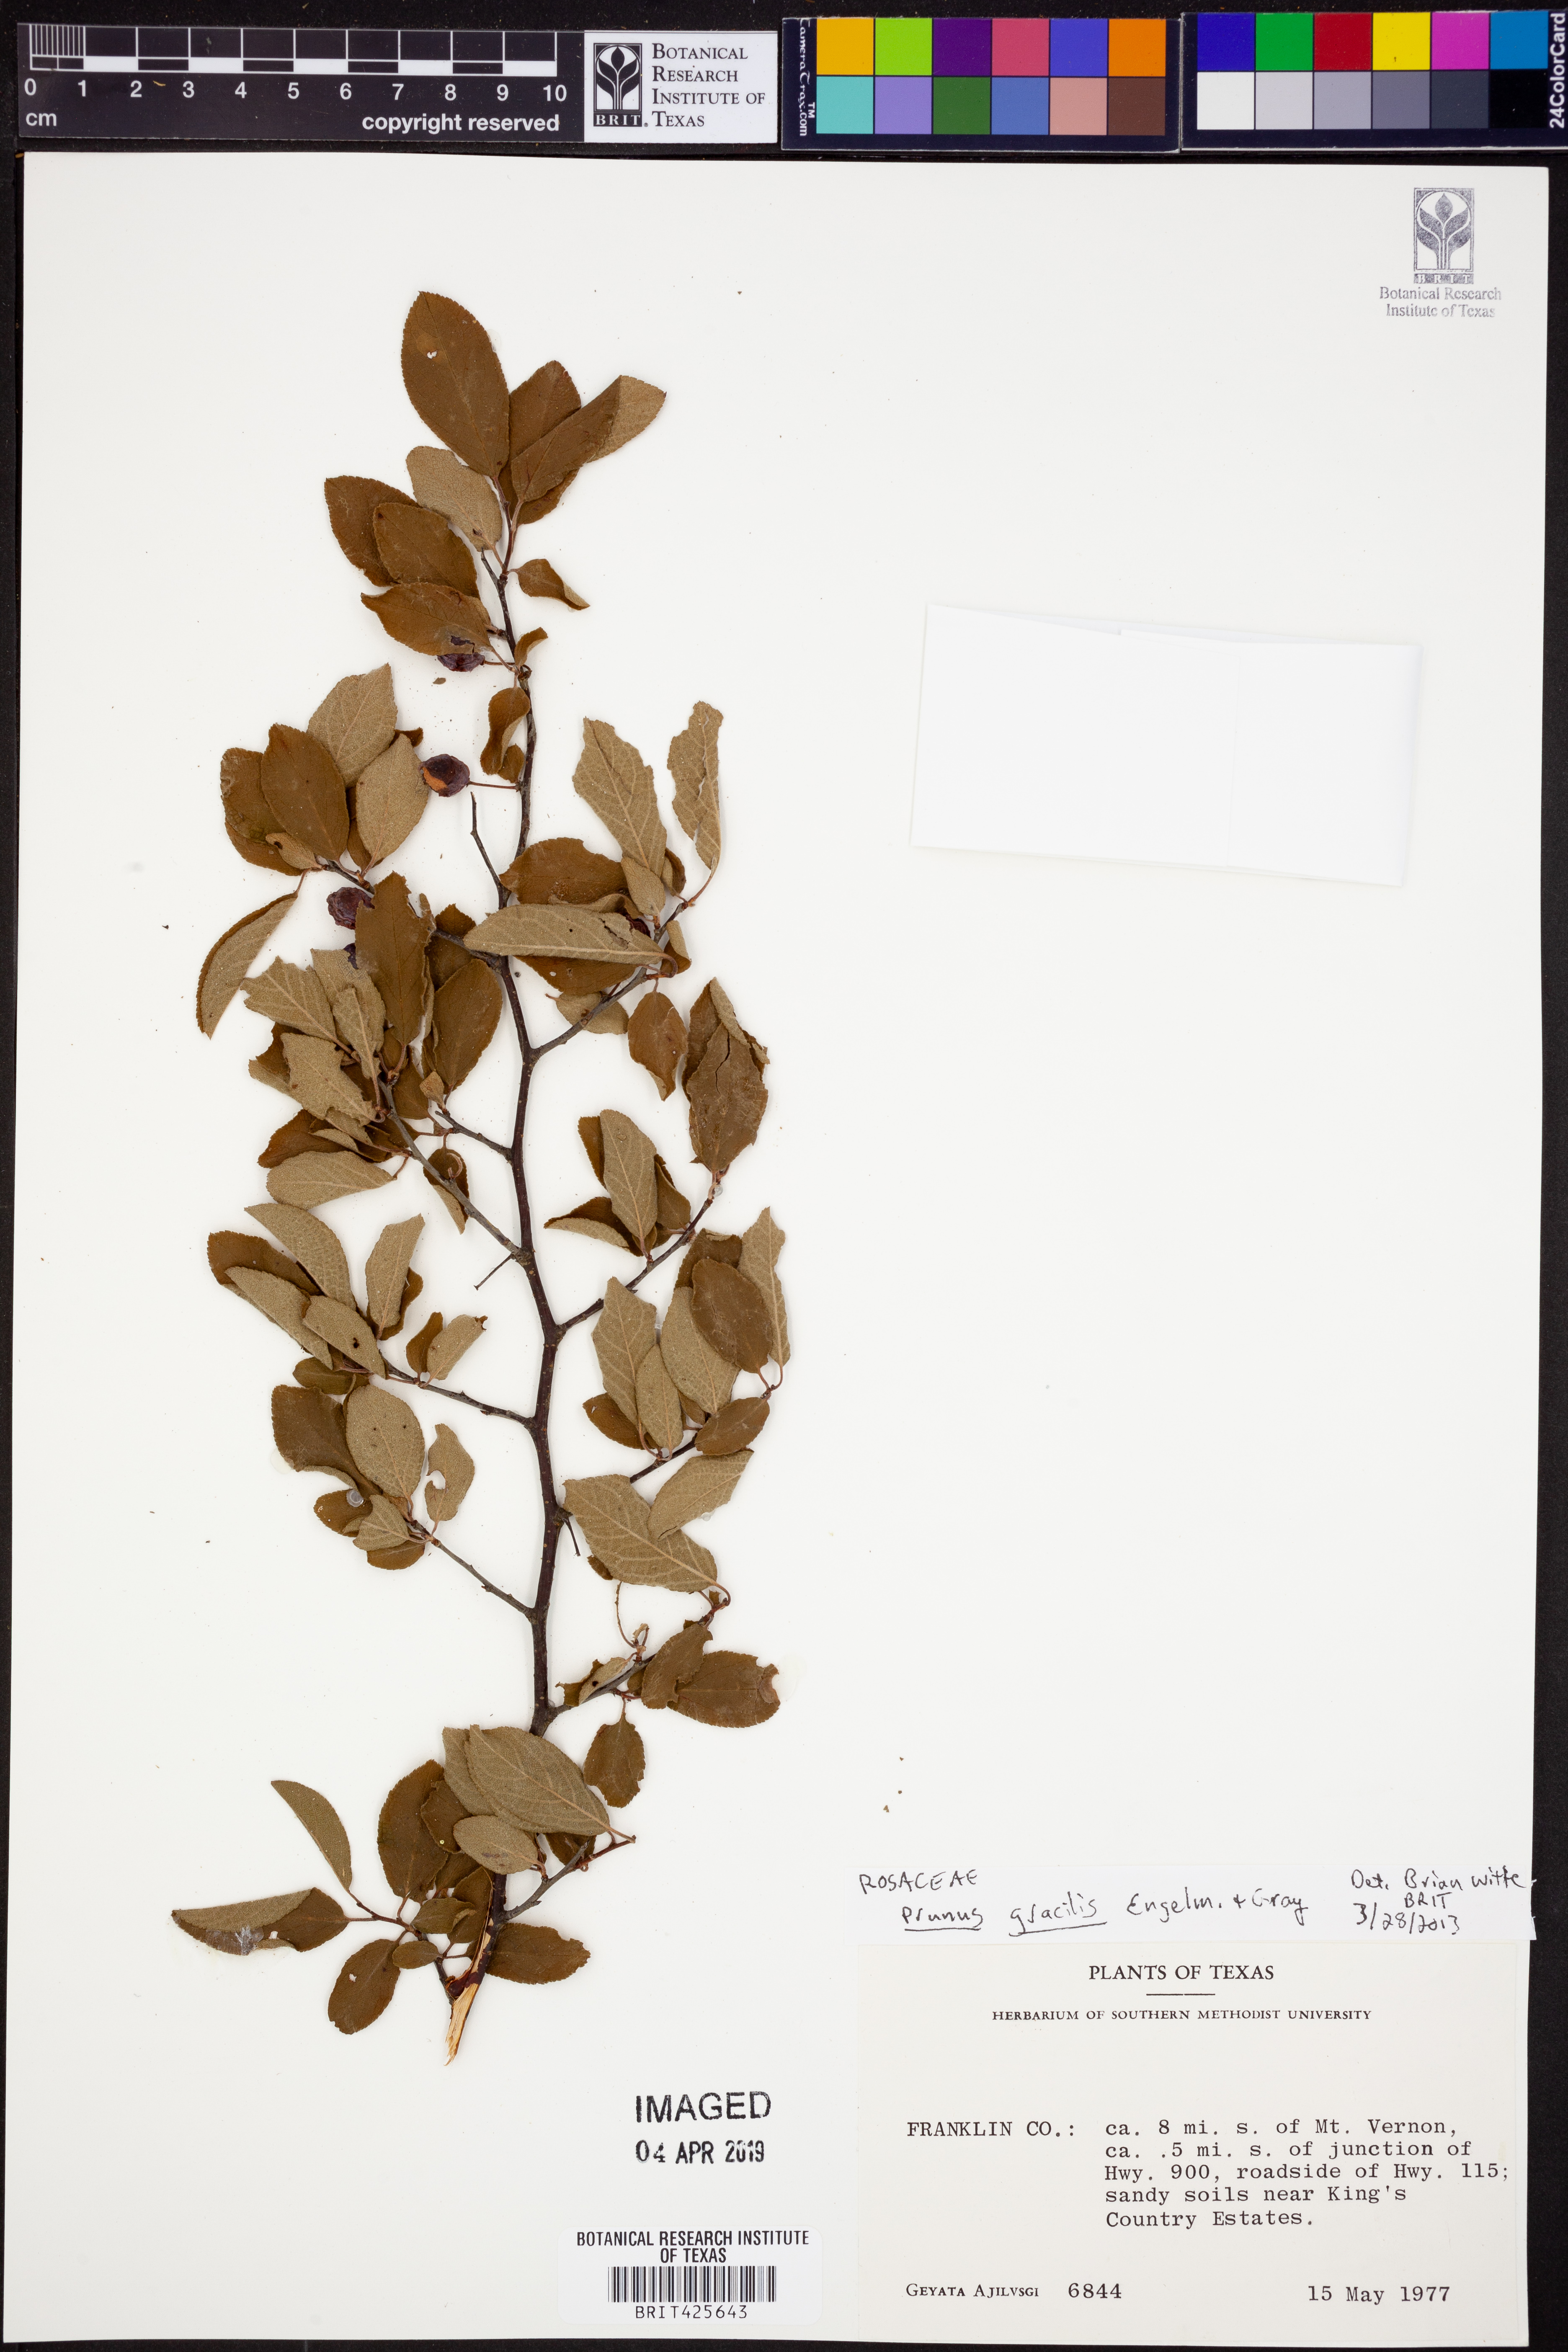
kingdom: Plantae
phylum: Tracheophyta
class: Magnoliopsida
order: Rosales
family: Rosaceae
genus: Prunus
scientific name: Prunus gracilis
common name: Oklahoma plum
